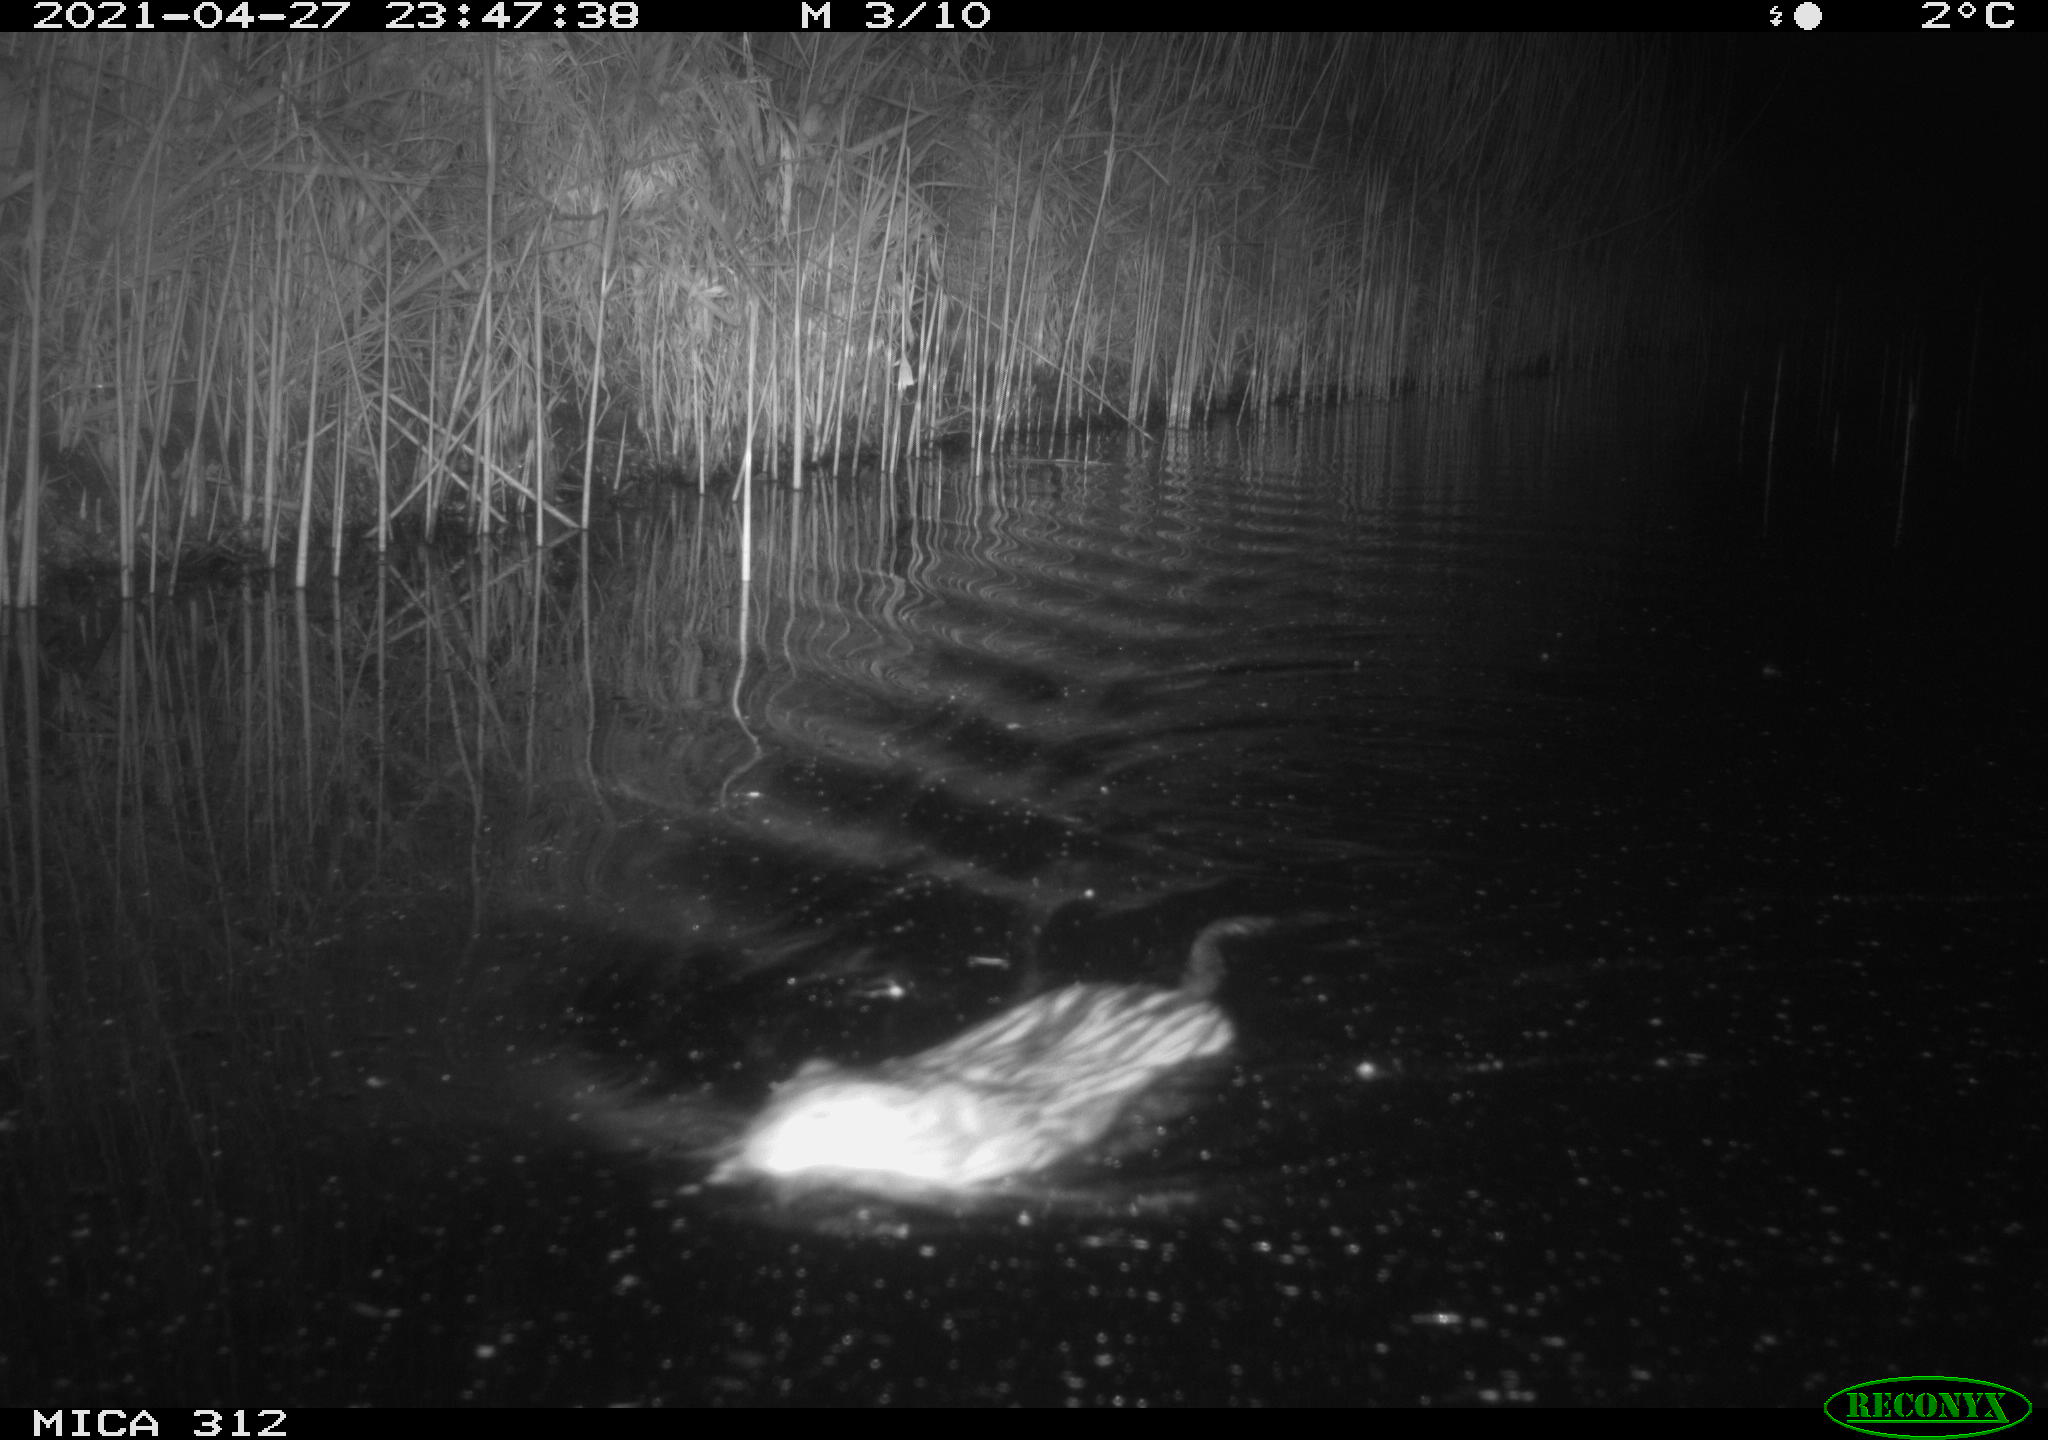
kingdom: Animalia
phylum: Chordata
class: Mammalia
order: Rodentia
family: Cricetidae
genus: Ondatra
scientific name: Ondatra zibethicus
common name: Muskrat
